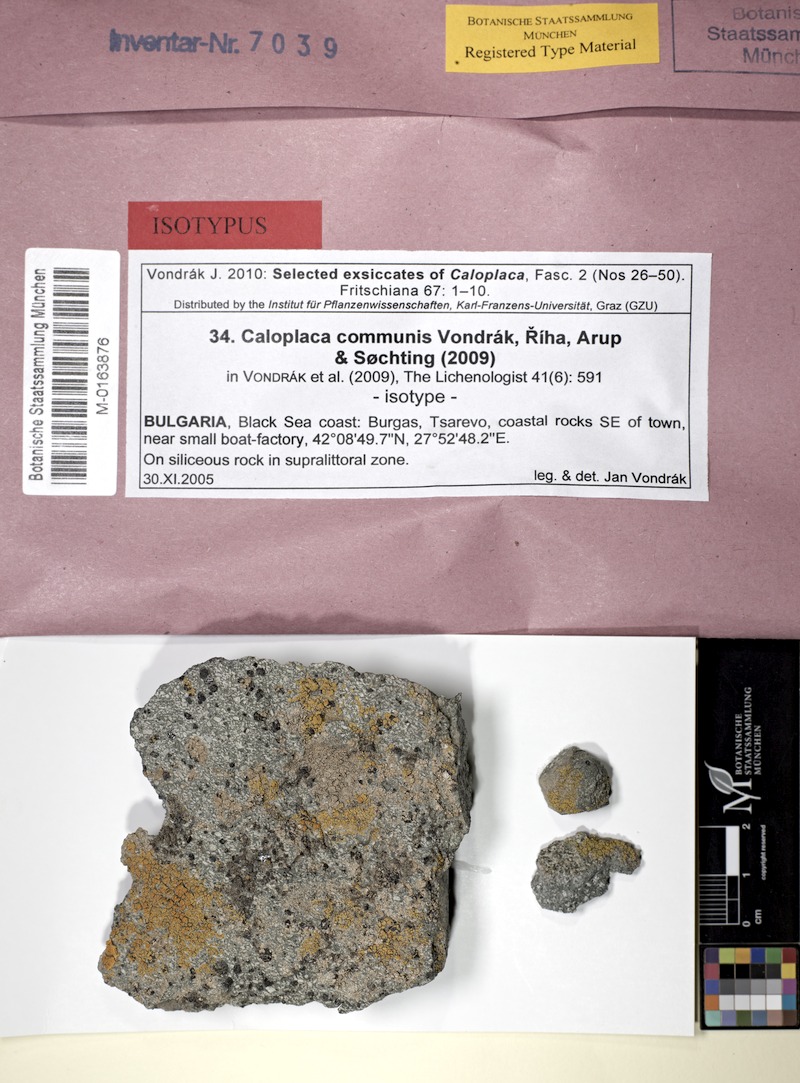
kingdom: Fungi
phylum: Ascomycota
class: Lecanoromycetes
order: Teloschistales
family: Teloschistaceae
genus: Flavoplaca
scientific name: Flavoplaca communis
